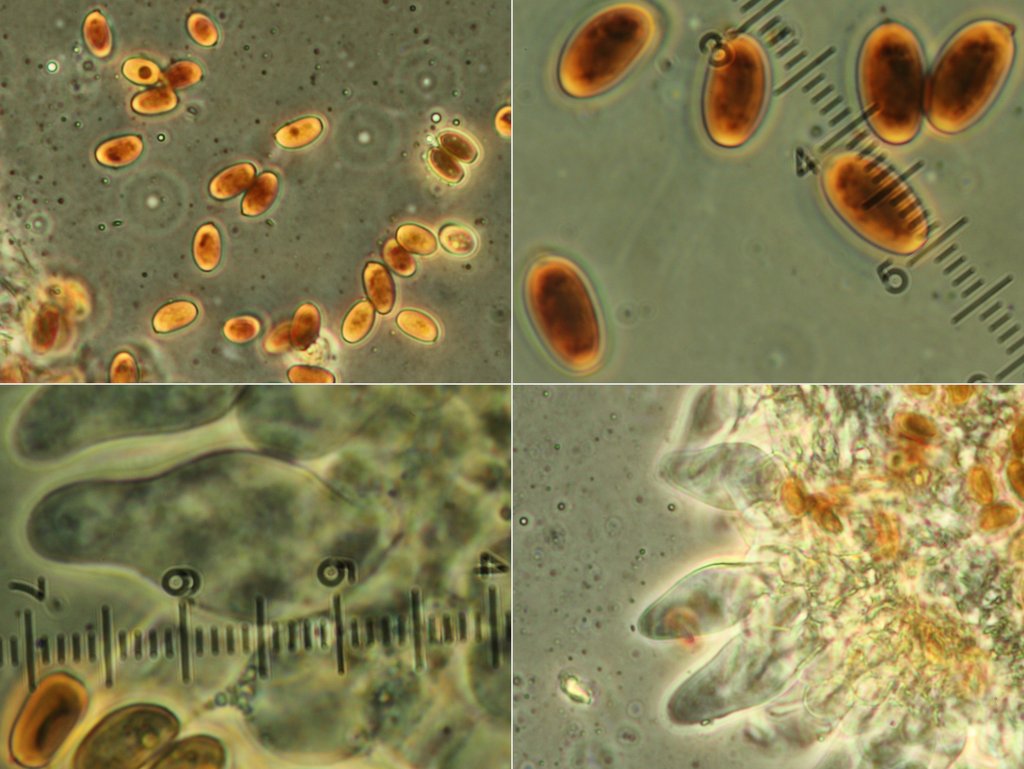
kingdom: Fungi
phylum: Basidiomycota
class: Agaricomycetes
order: Agaricales
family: Psathyrellaceae
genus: Psathyrella
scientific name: Psathyrella thujina
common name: staude-mørkhat
